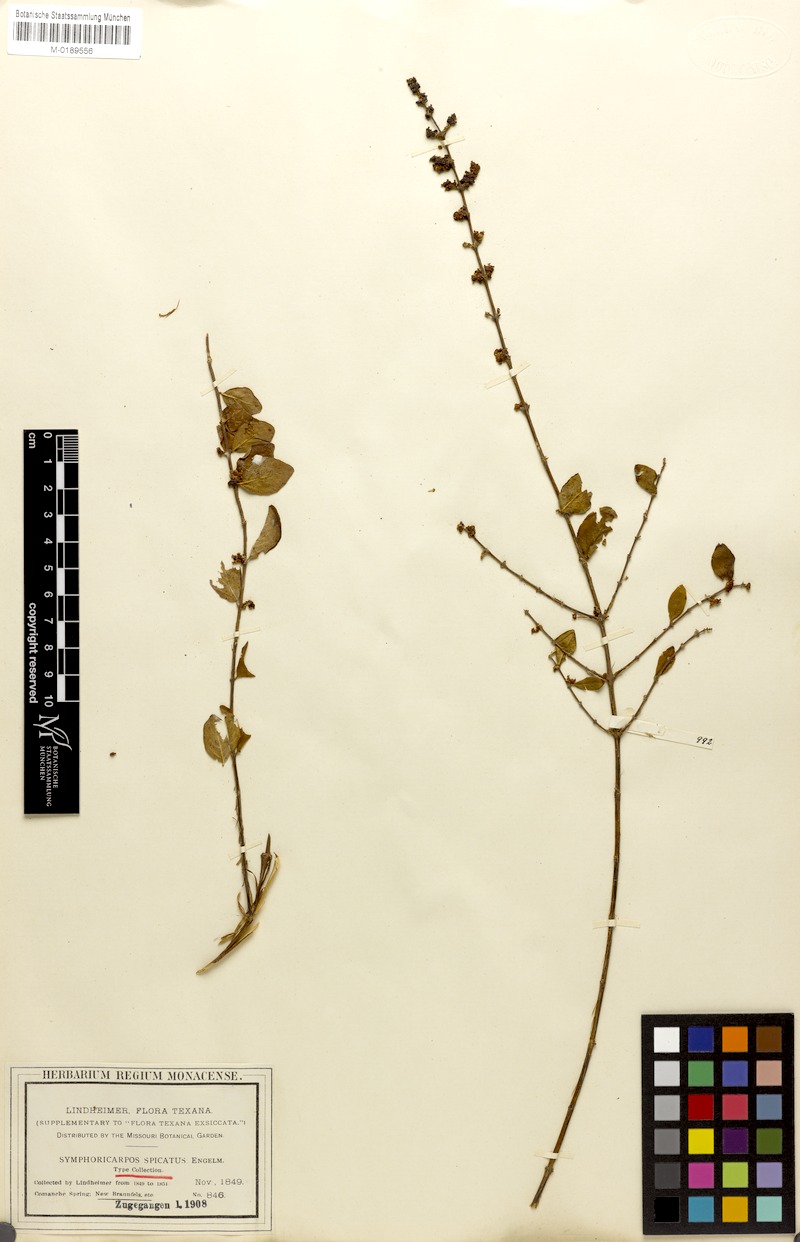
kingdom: Plantae
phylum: Tracheophyta
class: Magnoliopsida
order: Dipsacales
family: Caprifoliaceae
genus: Symphoricarpos
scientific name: Symphoricarpos orbiculatus
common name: Coralberry
